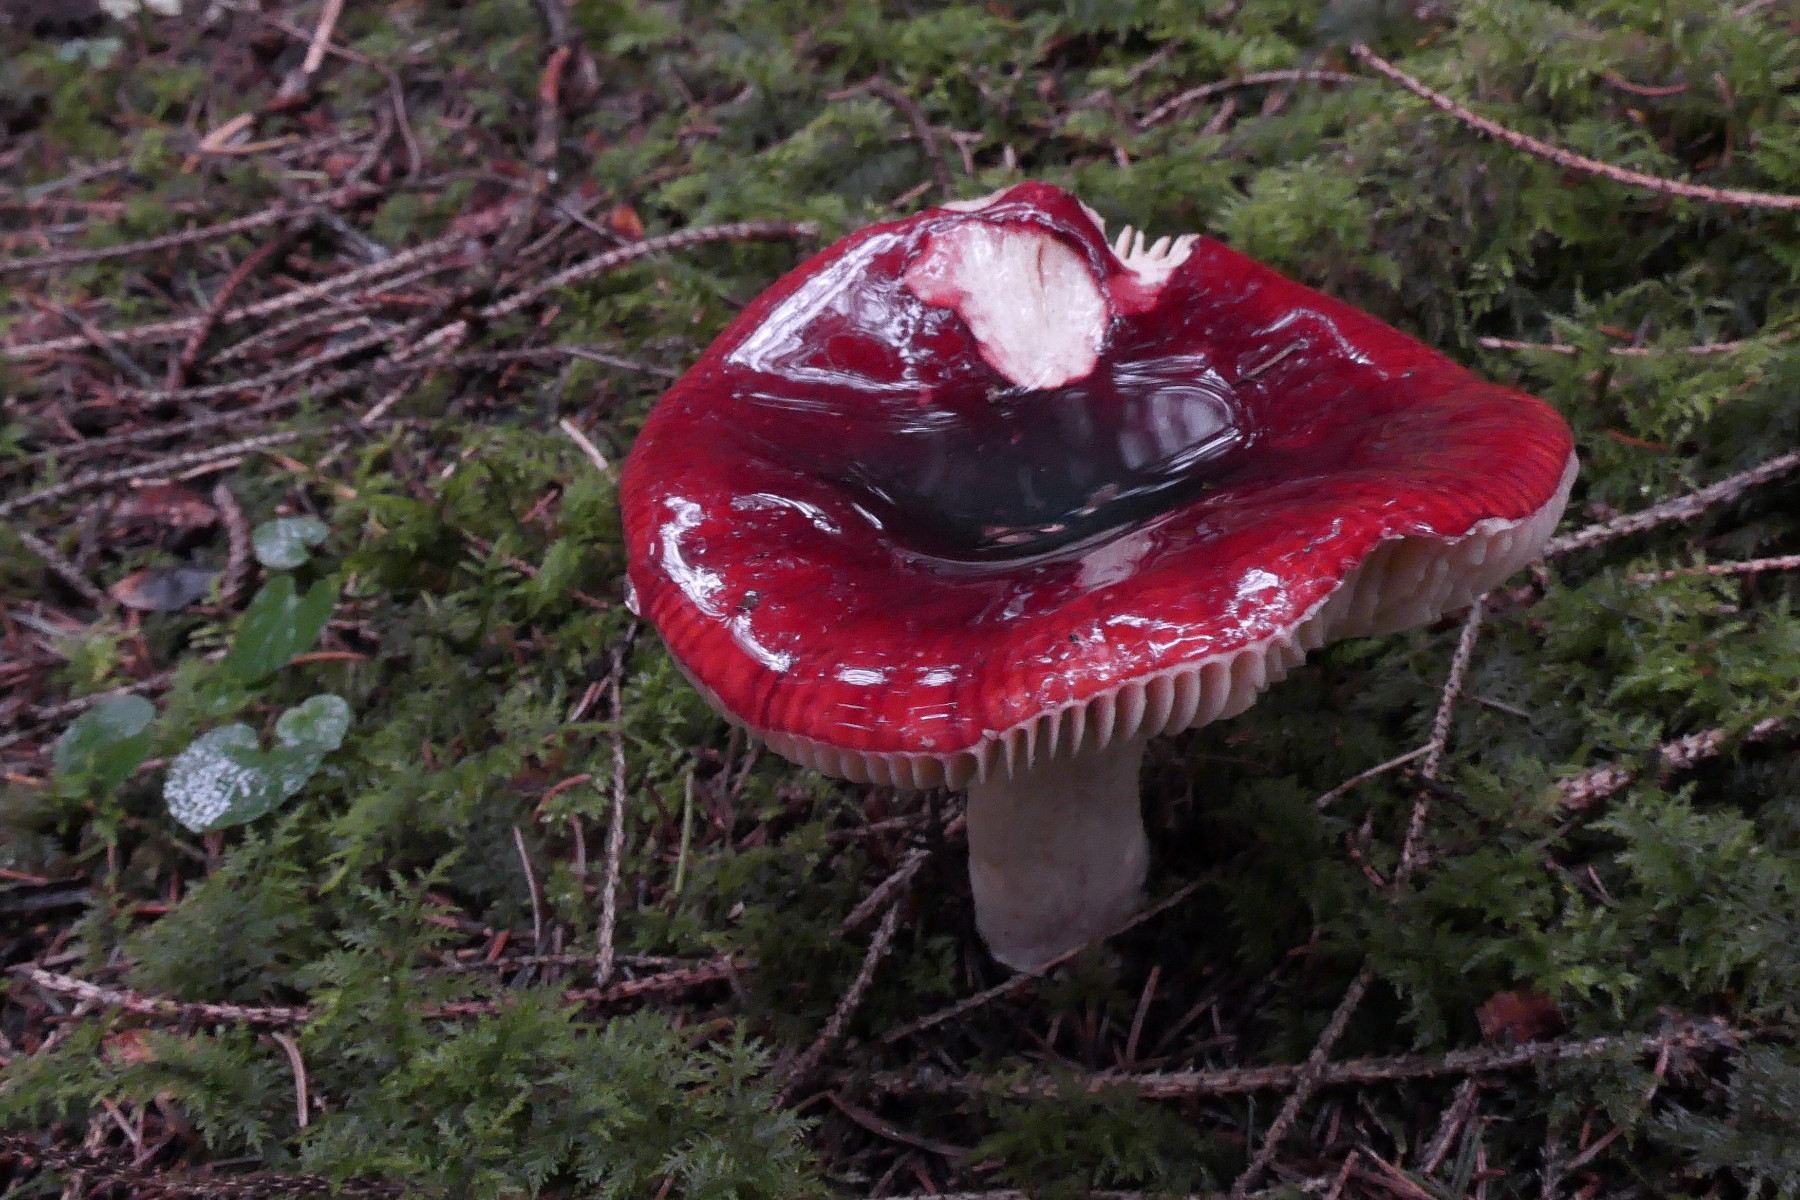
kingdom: Fungi
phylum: Basidiomycota
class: Agaricomycetes
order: Russulales
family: Russulaceae
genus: Russula
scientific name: Russula xerampelina
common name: hummer-skørhat
